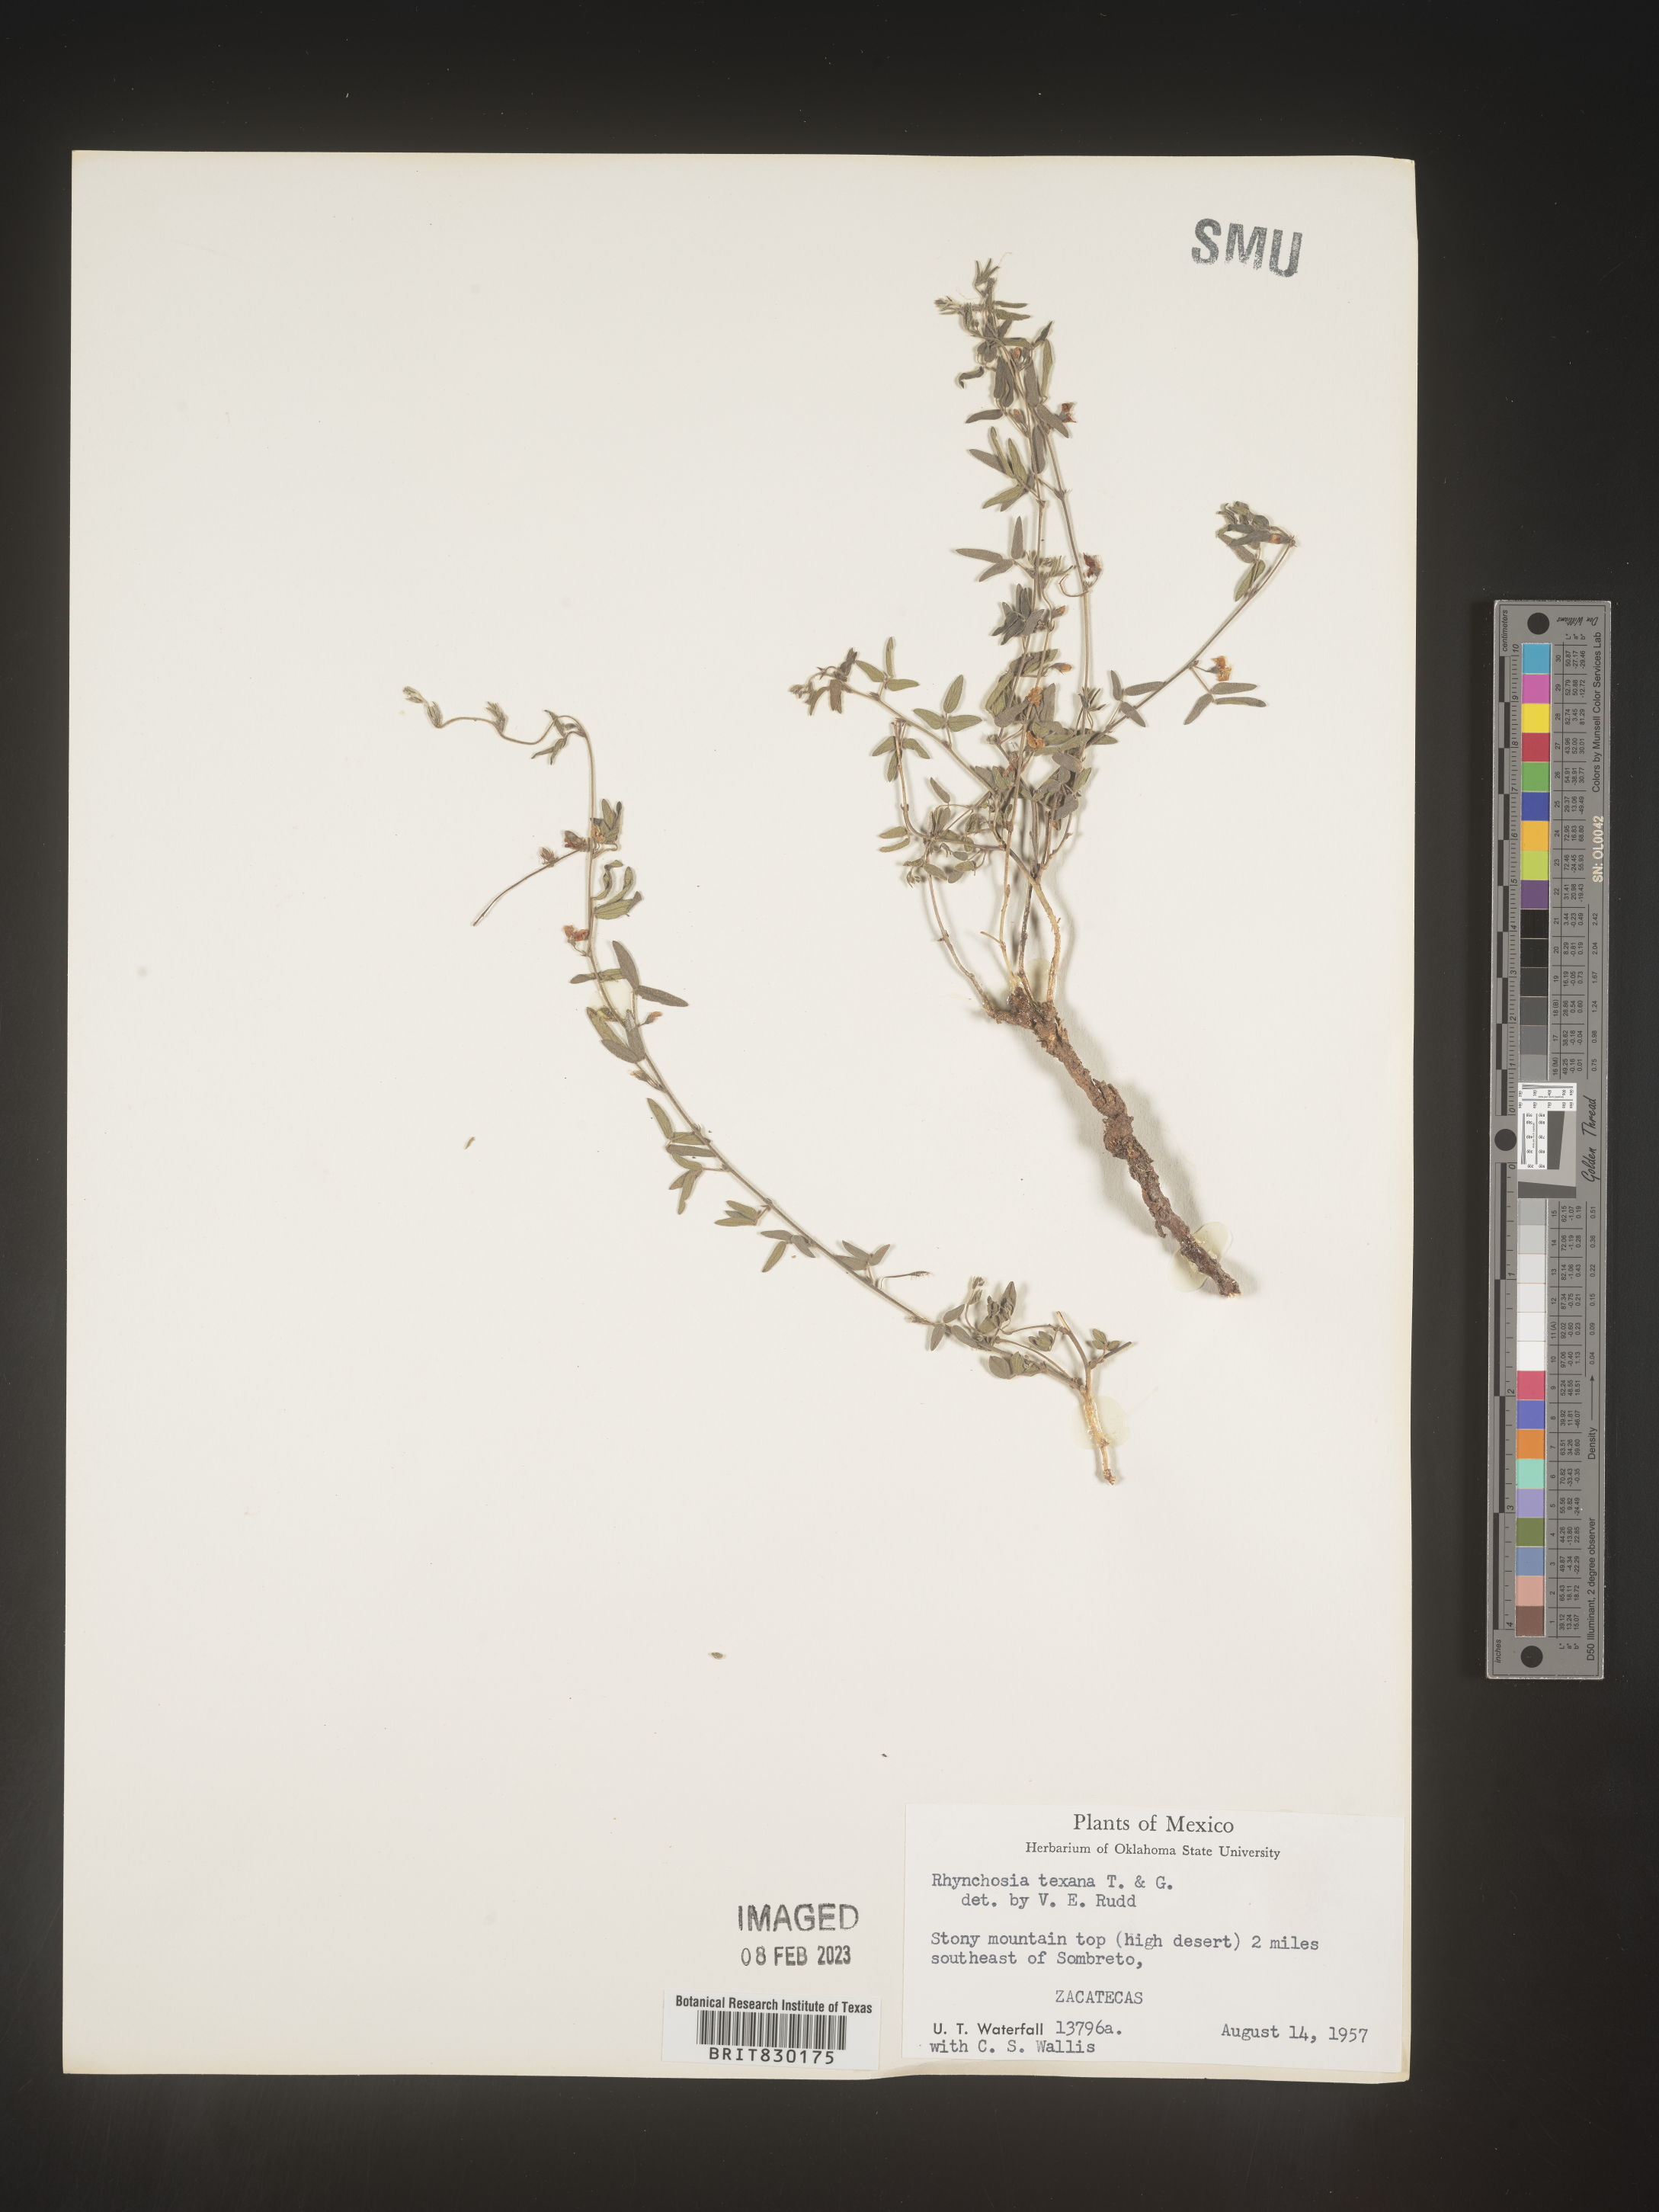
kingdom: Plantae
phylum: Tracheophyta
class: Magnoliopsida
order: Fabales
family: Fabaceae
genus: Rhynchosia
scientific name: Rhynchosia
